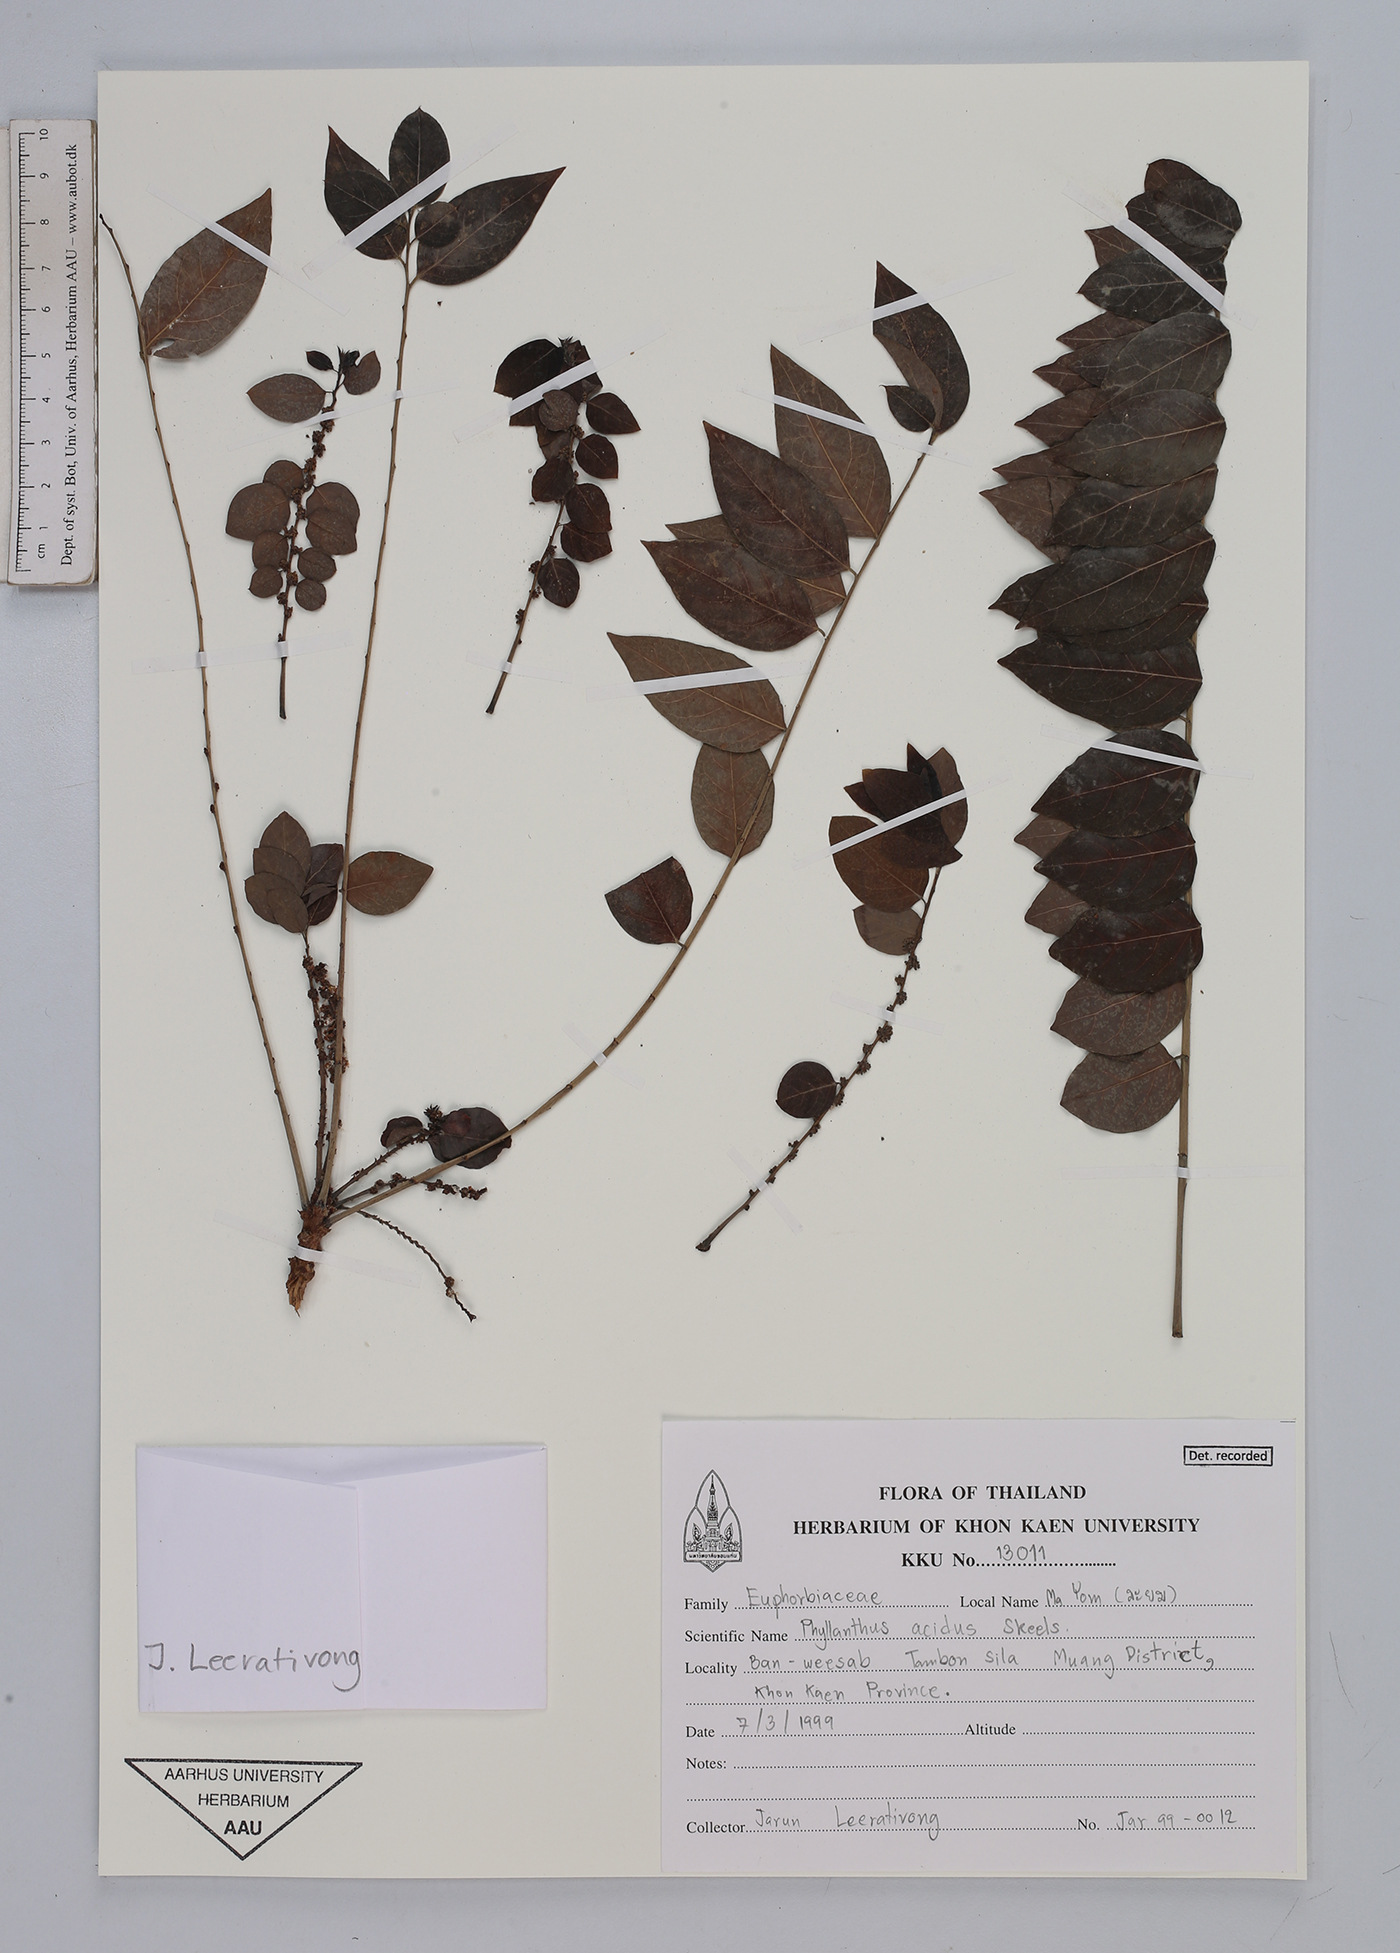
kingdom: Plantae
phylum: Tracheophyta
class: Magnoliopsida
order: Malpighiales
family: Phyllanthaceae
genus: Phyllanthus
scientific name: Phyllanthus acidus
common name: Tahitian gooseberry tree
